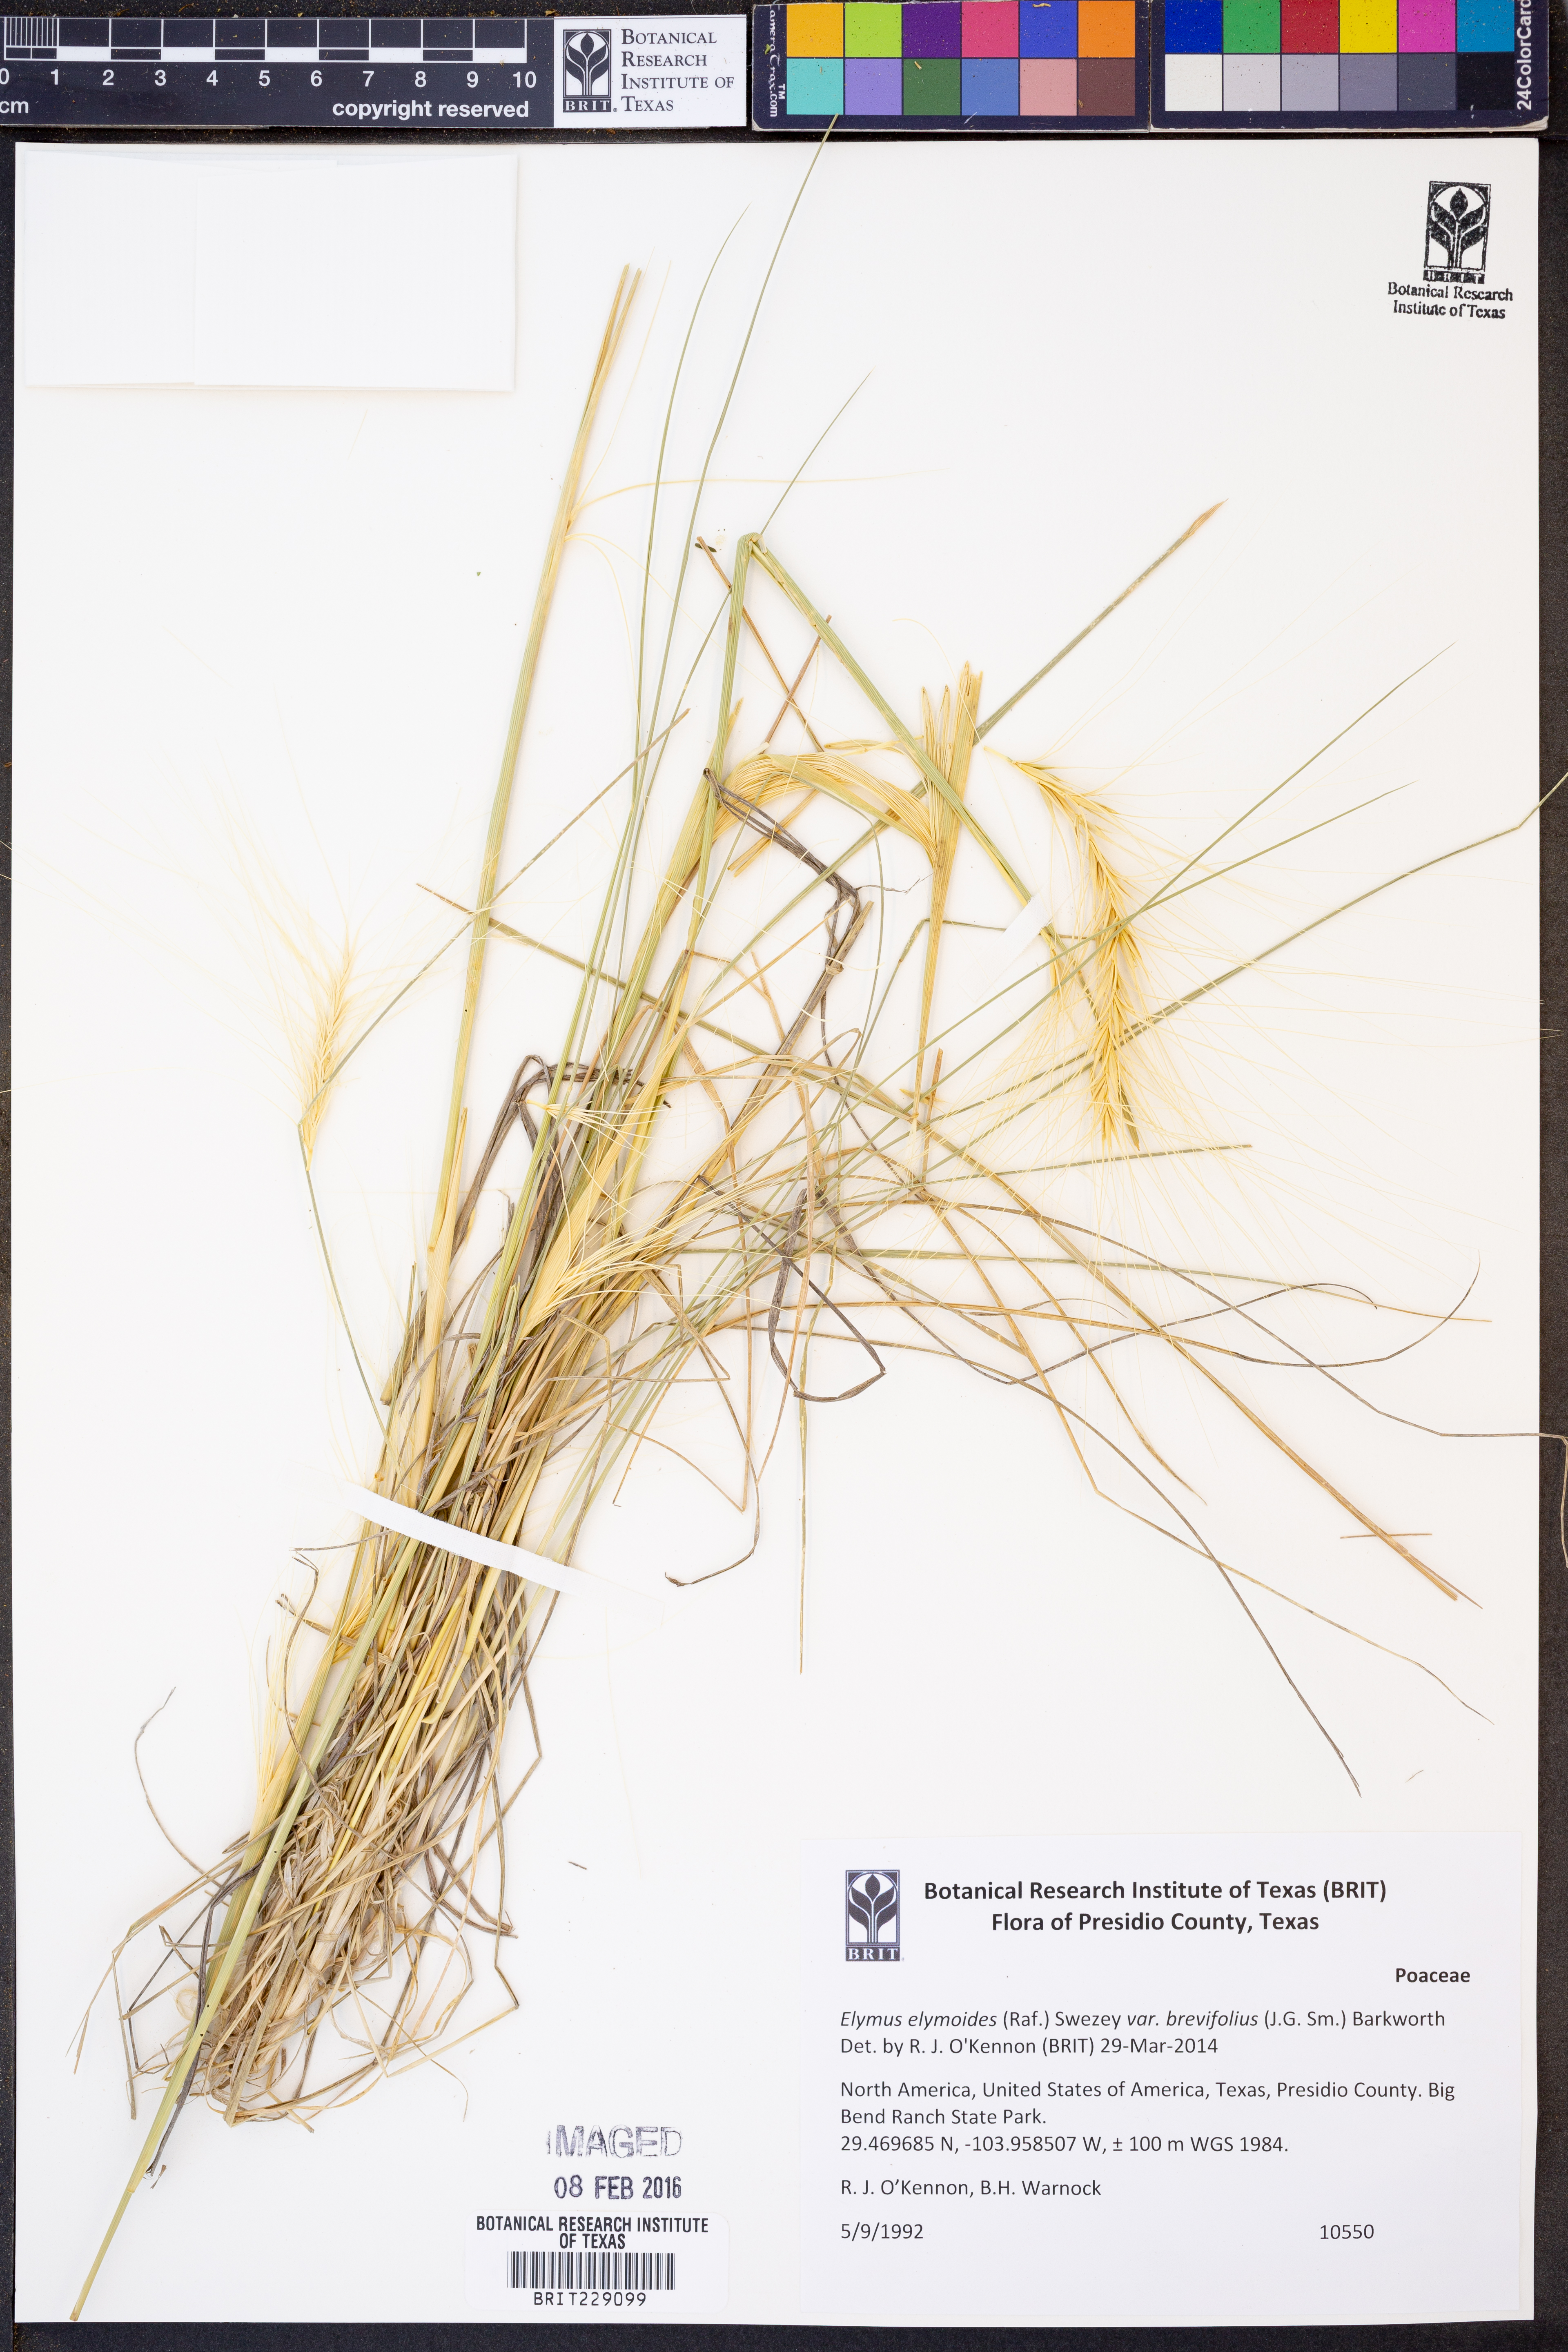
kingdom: Plantae
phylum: Tracheophyta
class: Liliopsida
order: Poales
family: Poaceae
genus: Elymus
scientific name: Elymus longifolius
